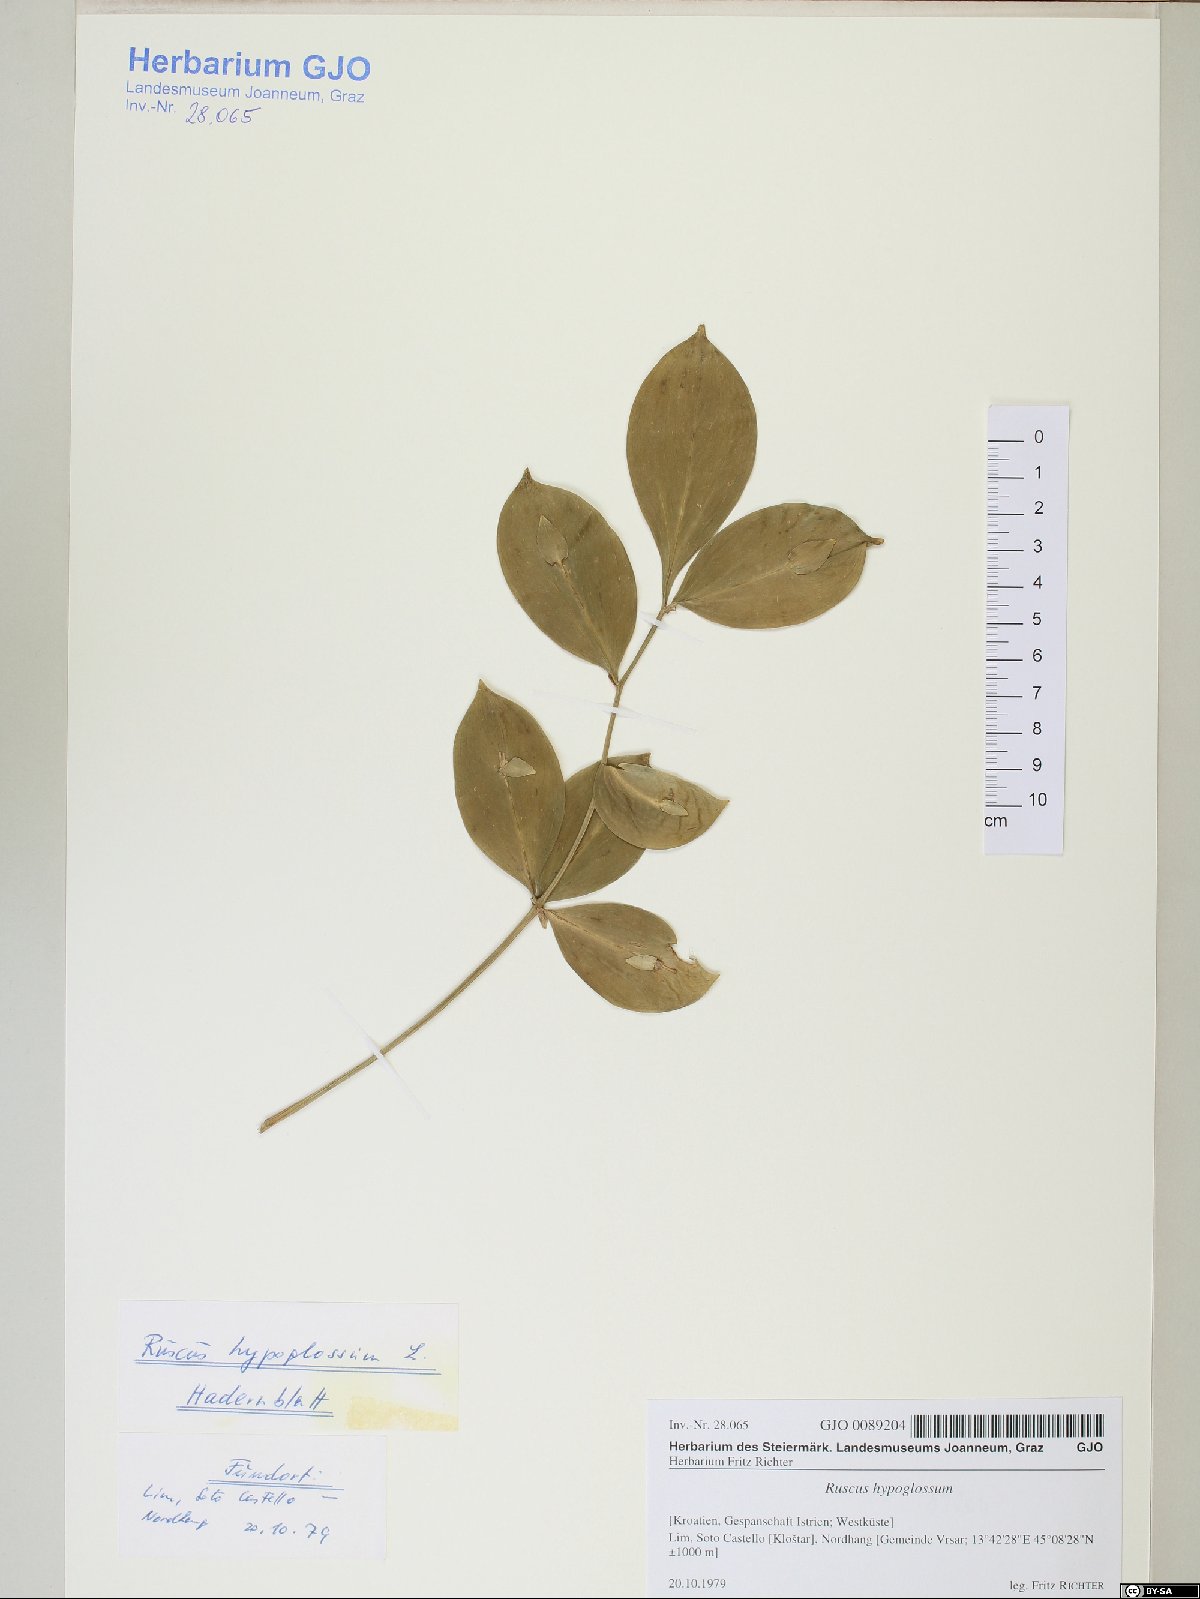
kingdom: Plantae
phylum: Tracheophyta
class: Liliopsida
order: Asparagales
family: Asparagaceae
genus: Ruscus
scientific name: Ruscus hypoglossum
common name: Spineless butcher's-broom
